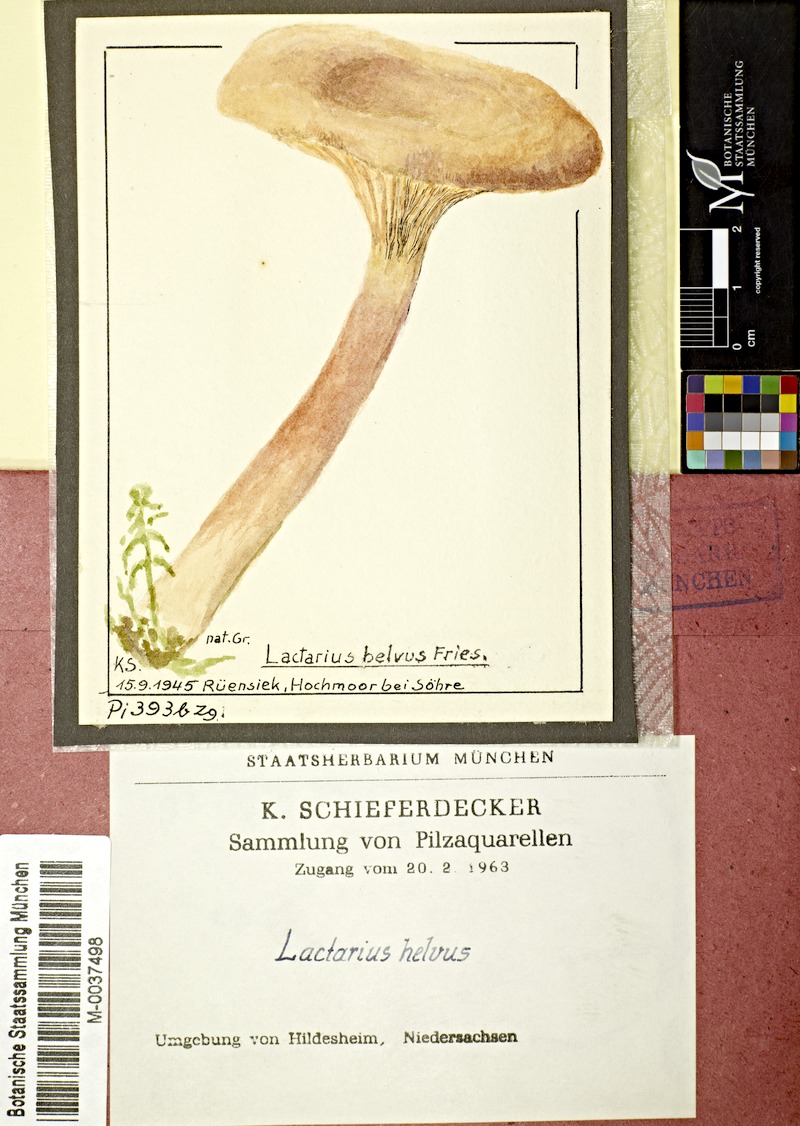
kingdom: Fungi
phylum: Basidiomycota
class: Agaricomycetes
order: Russulales
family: Russulaceae
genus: Lactarius
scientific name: Lactarius helvus
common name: Fenugreek milkcap
